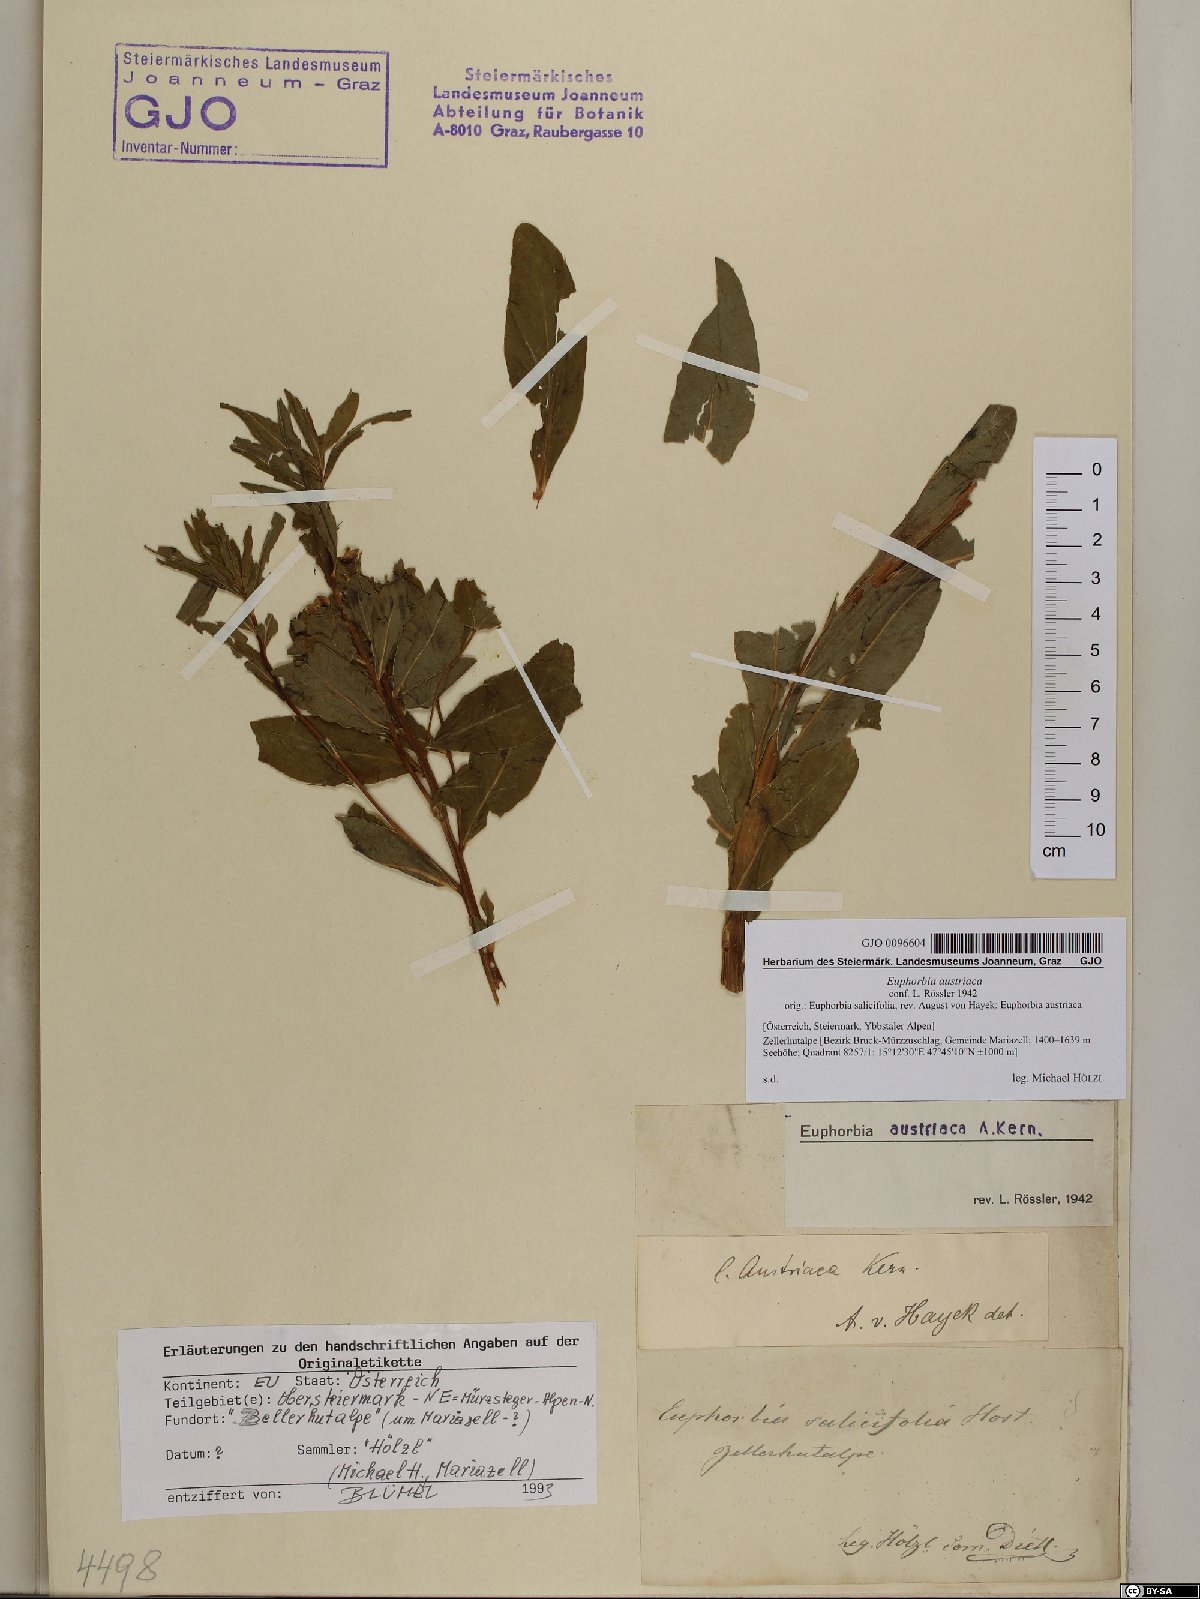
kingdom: Plantae
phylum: Tracheophyta
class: Magnoliopsida
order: Malpighiales
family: Euphorbiaceae
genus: Euphorbia
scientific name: Euphorbia austriaca
